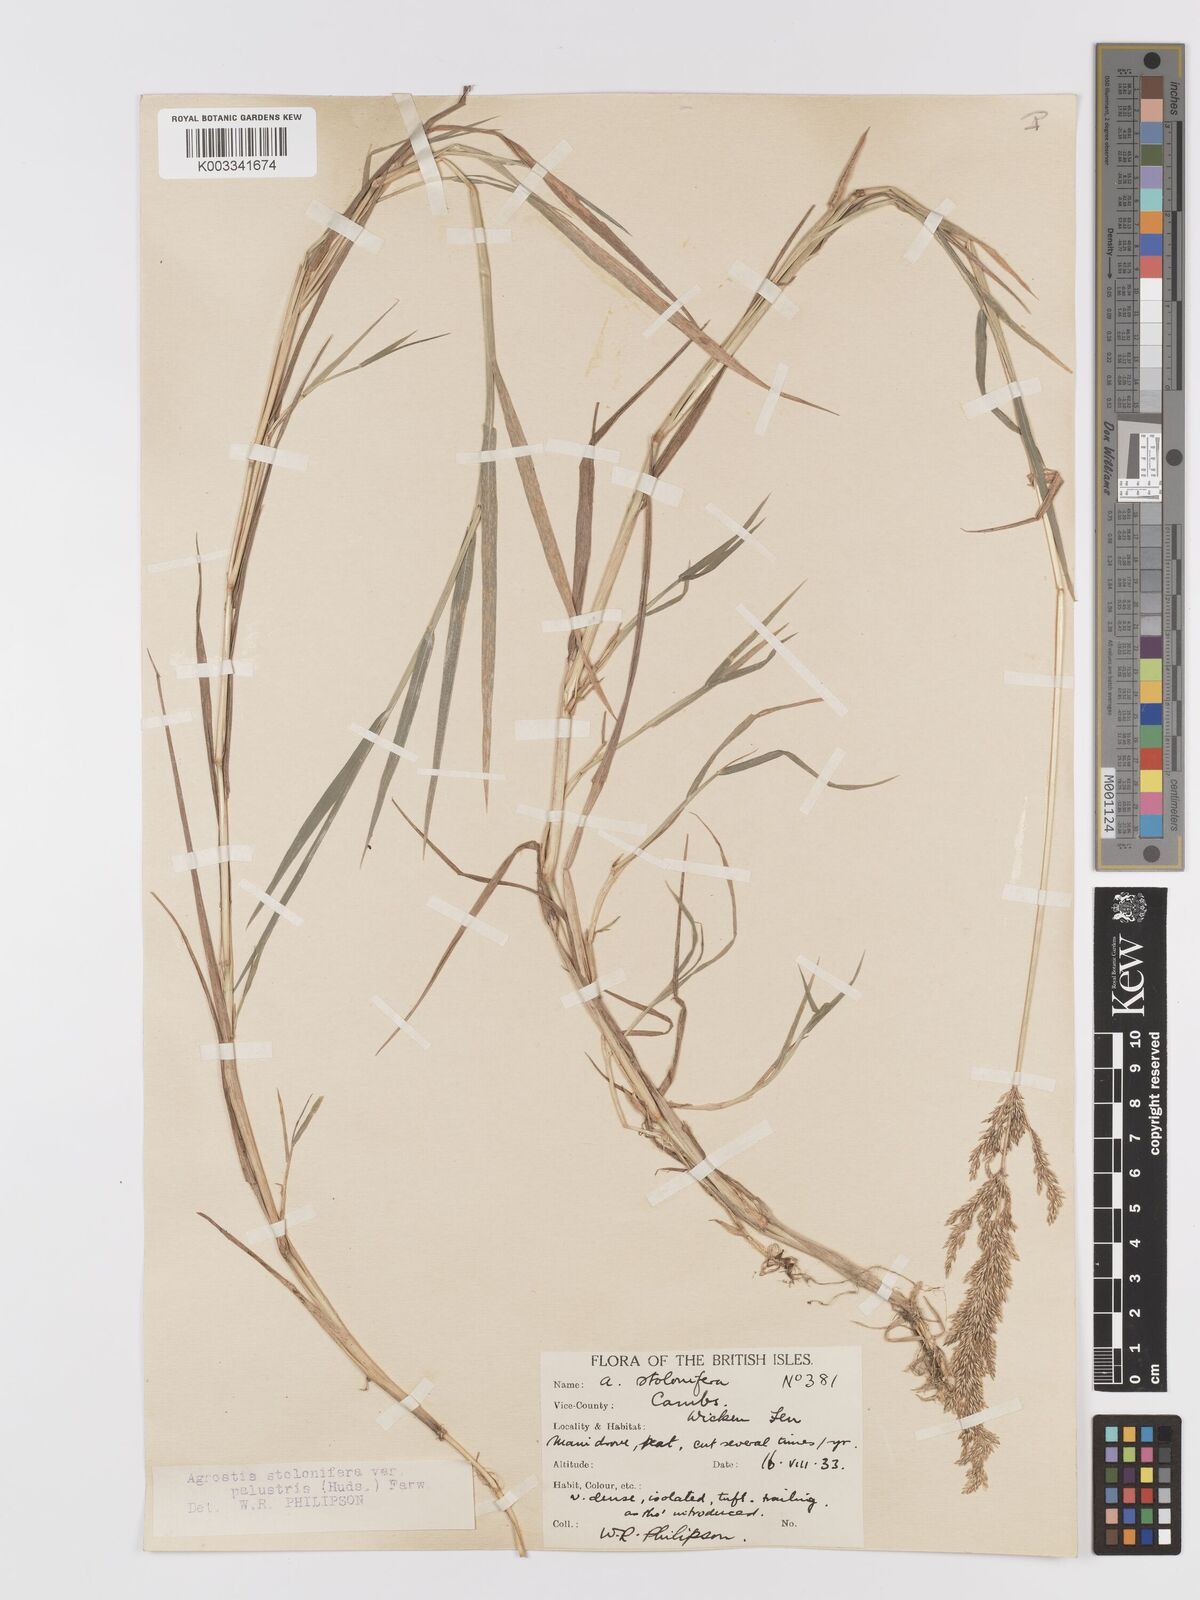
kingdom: Plantae
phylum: Tracheophyta
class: Liliopsida
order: Poales
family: Poaceae
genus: Agrostis
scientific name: Agrostis stolonifera
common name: Creeping bentgrass
